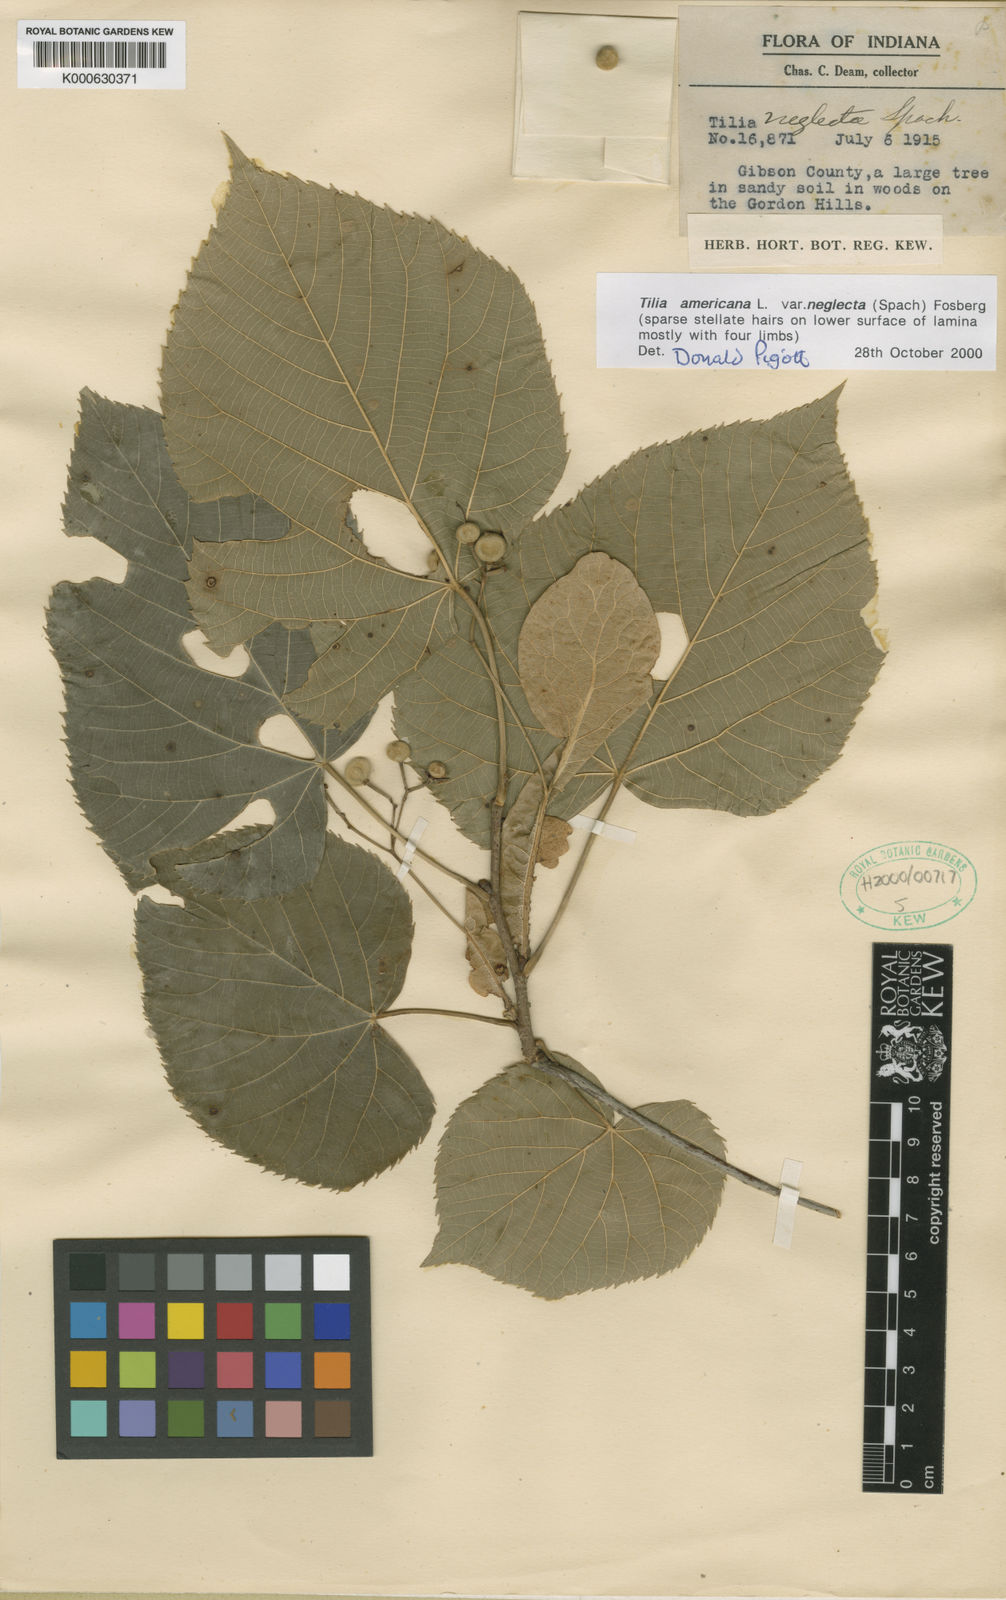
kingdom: Plantae
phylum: Tracheophyta
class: Magnoliopsida
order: Malvales
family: Malvaceae
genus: Tilia
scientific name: Tilia americana
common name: Basswood
